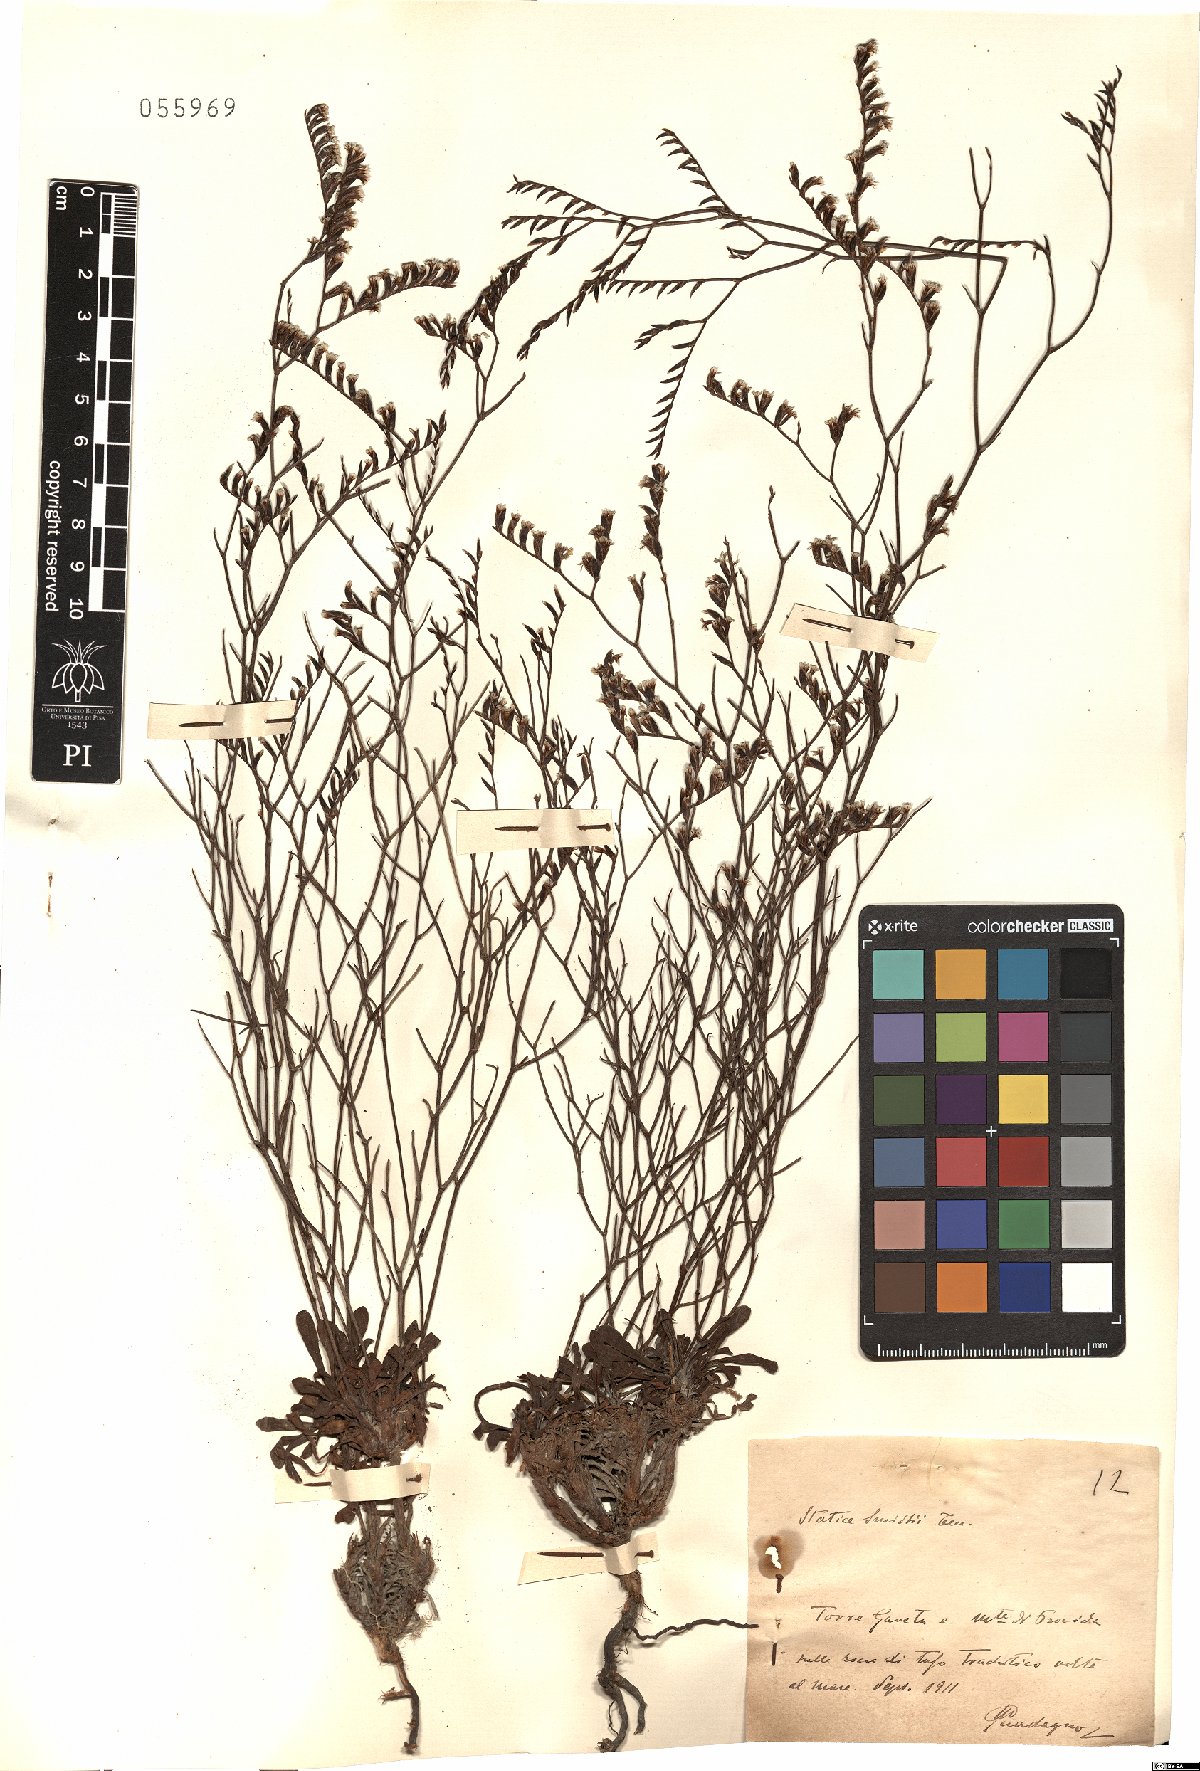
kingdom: Plantae
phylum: Tracheophyta
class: Magnoliopsida
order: Caryophyllales
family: Plumbaginaceae
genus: Limonium
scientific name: Limonium virgatum
